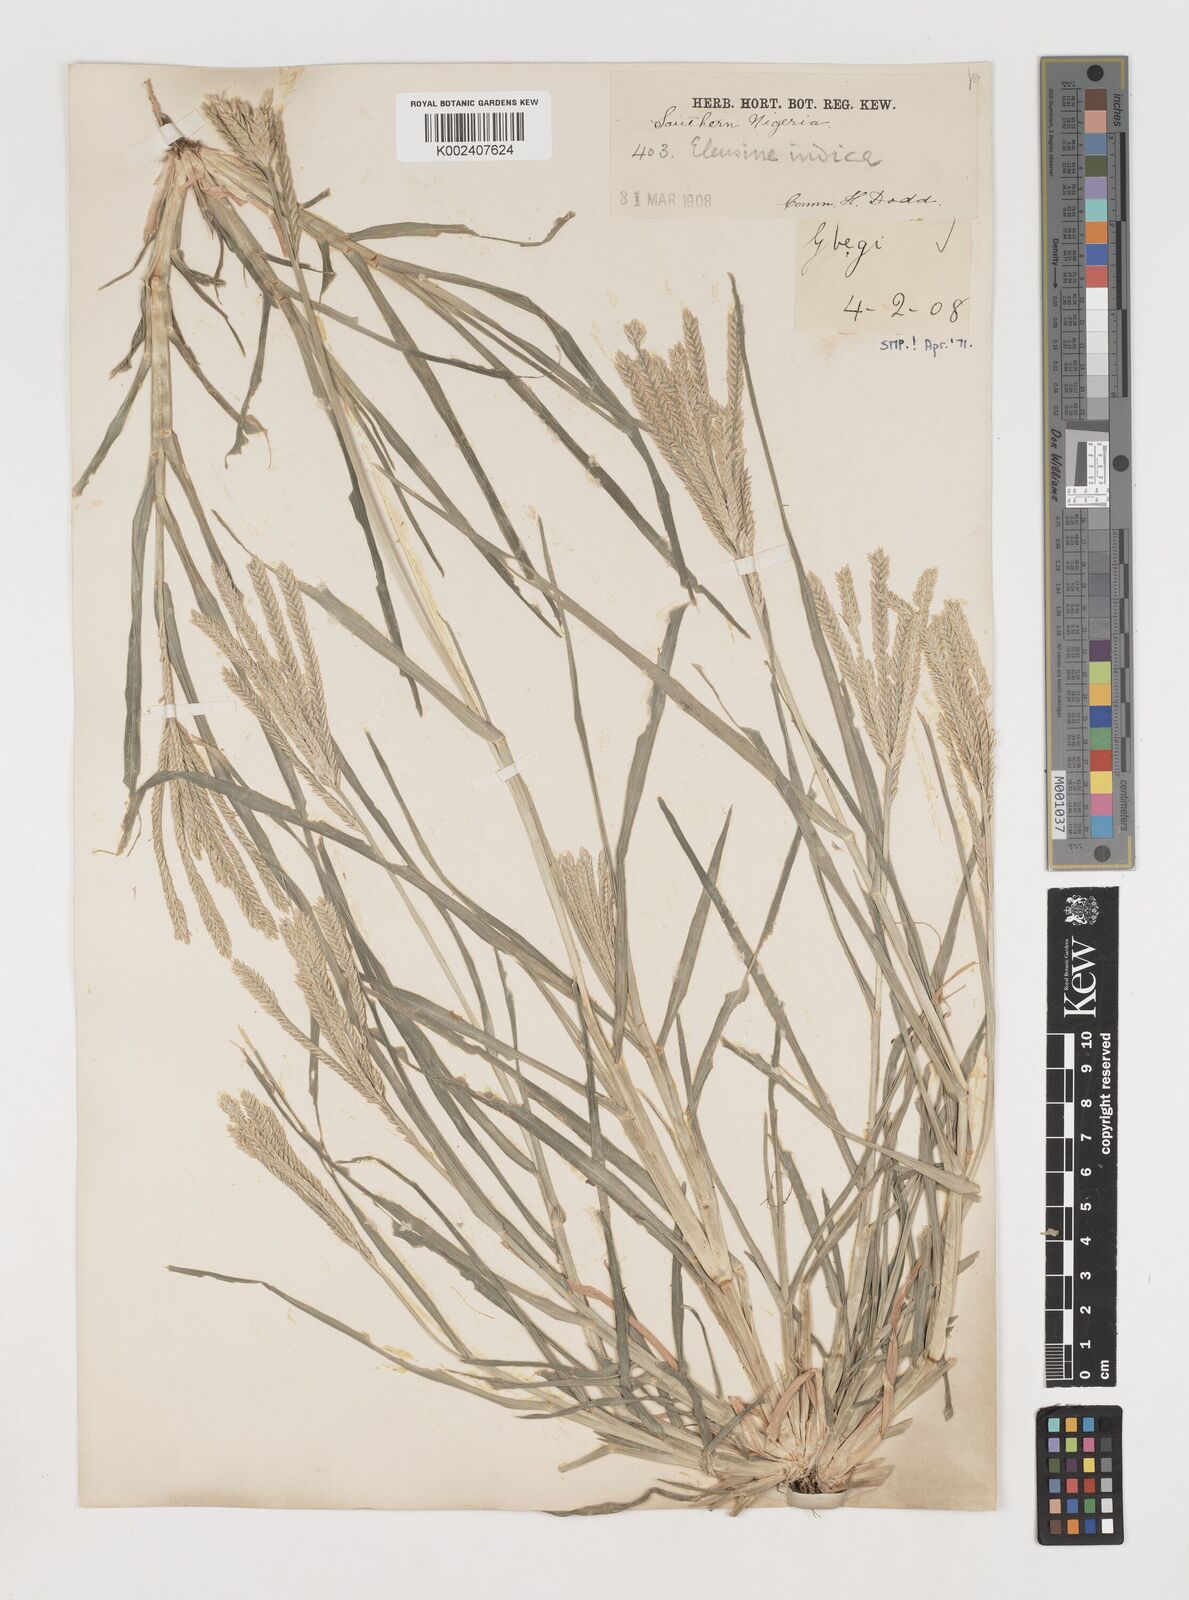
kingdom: Plantae
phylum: Tracheophyta
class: Liliopsida
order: Poales
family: Poaceae
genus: Eleusine
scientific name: Eleusine indica
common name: Yard-grass
